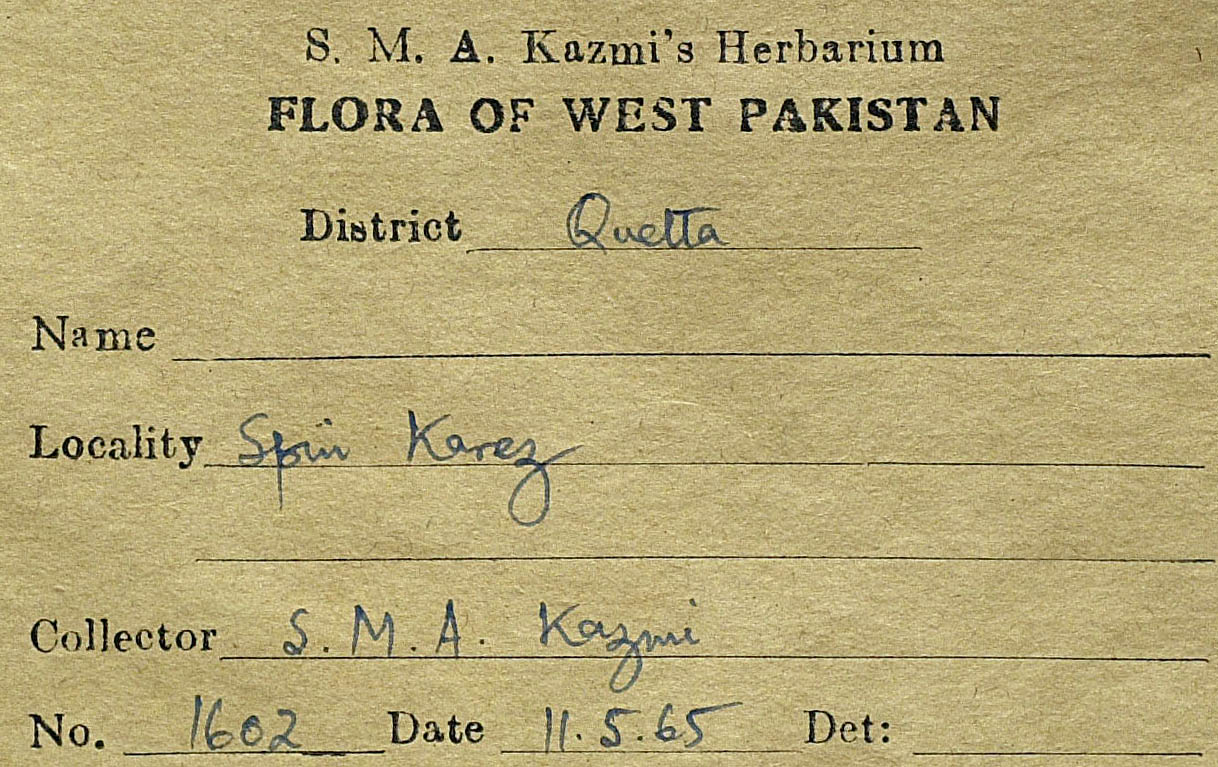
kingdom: Plantae
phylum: Tracheophyta
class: Magnoliopsida
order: Asterales
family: Asteraceae
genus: Artemisia
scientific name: Artemisia quettensis
